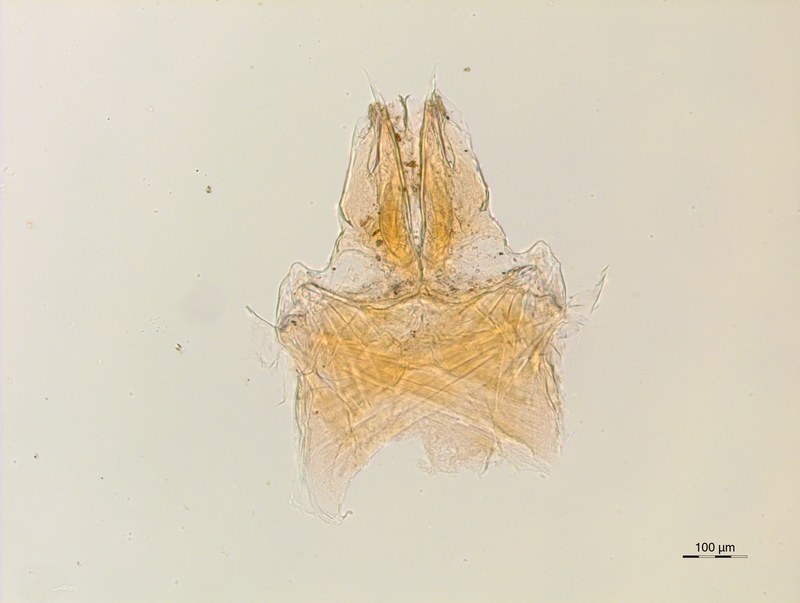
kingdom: Animalia
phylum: Arthropoda
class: Diplopoda
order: Chordeumatida
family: Anthroleucosomatidae
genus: Anamastigona
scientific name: Anamastigona pentelicona
